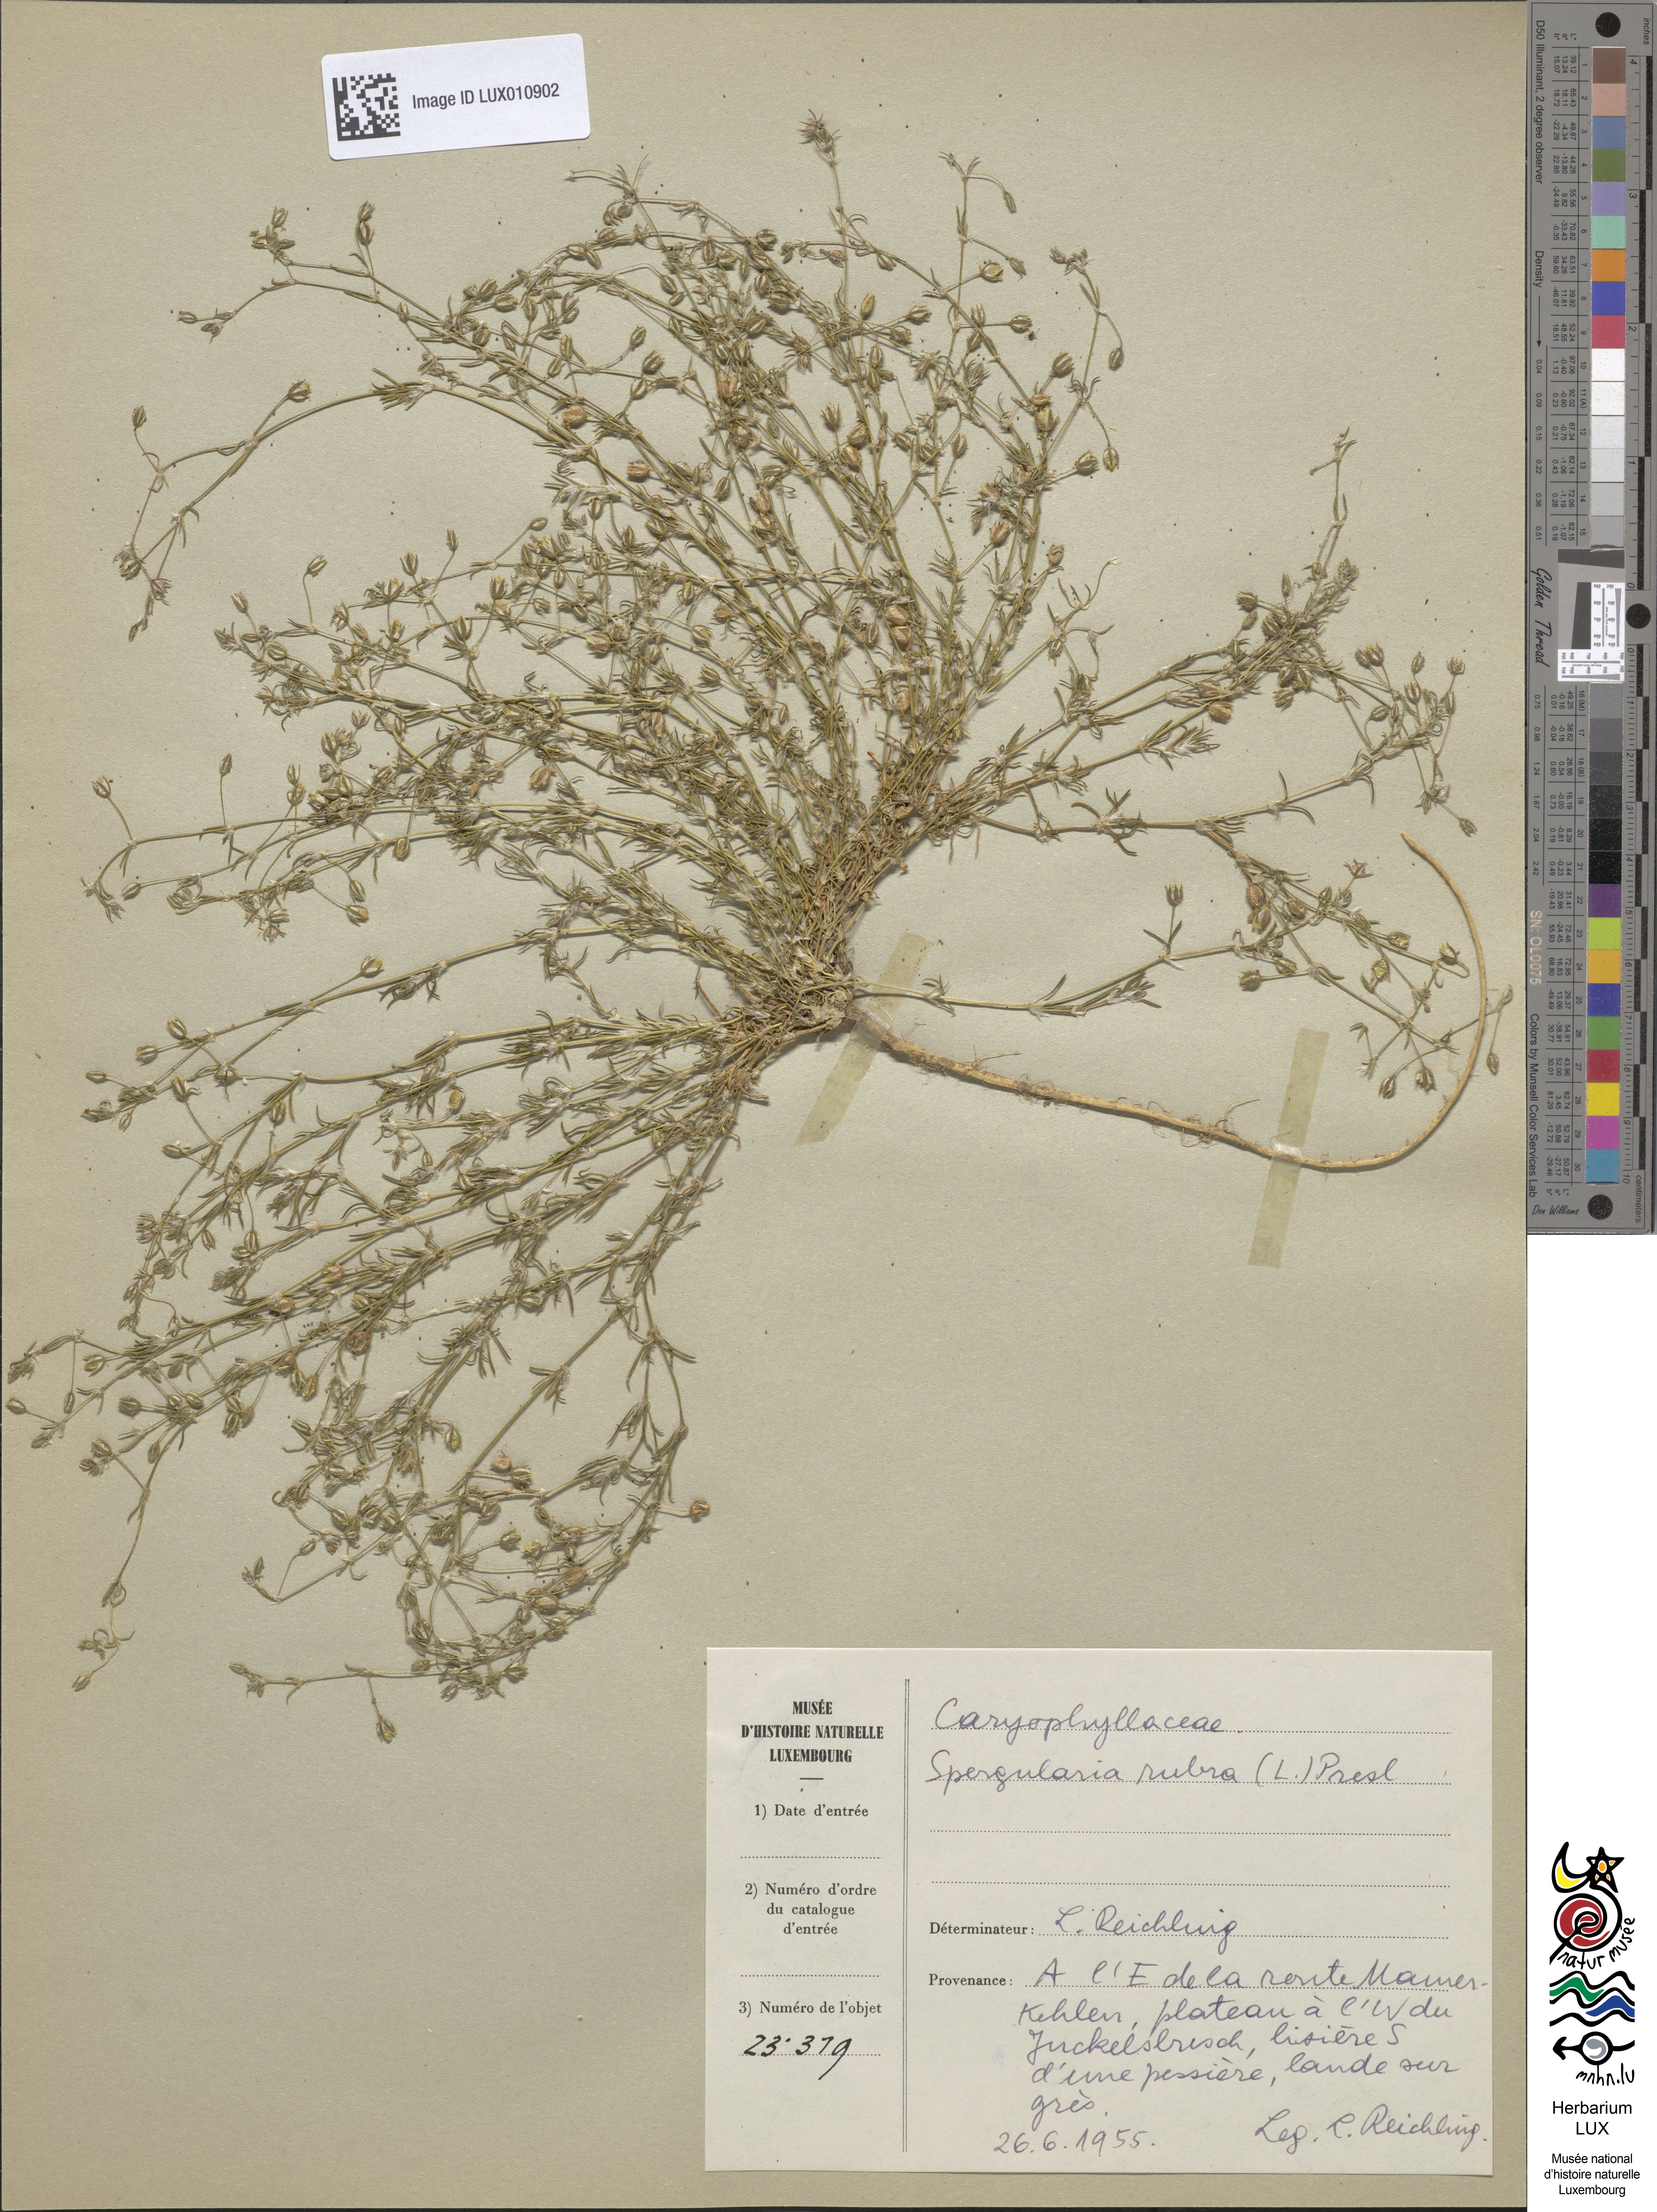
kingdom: Plantae
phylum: Tracheophyta
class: Magnoliopsida
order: Caryophyllales
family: Caryophyllaceae
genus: Spergularia
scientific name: Spergularia rubra
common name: Red sand-spurrey
